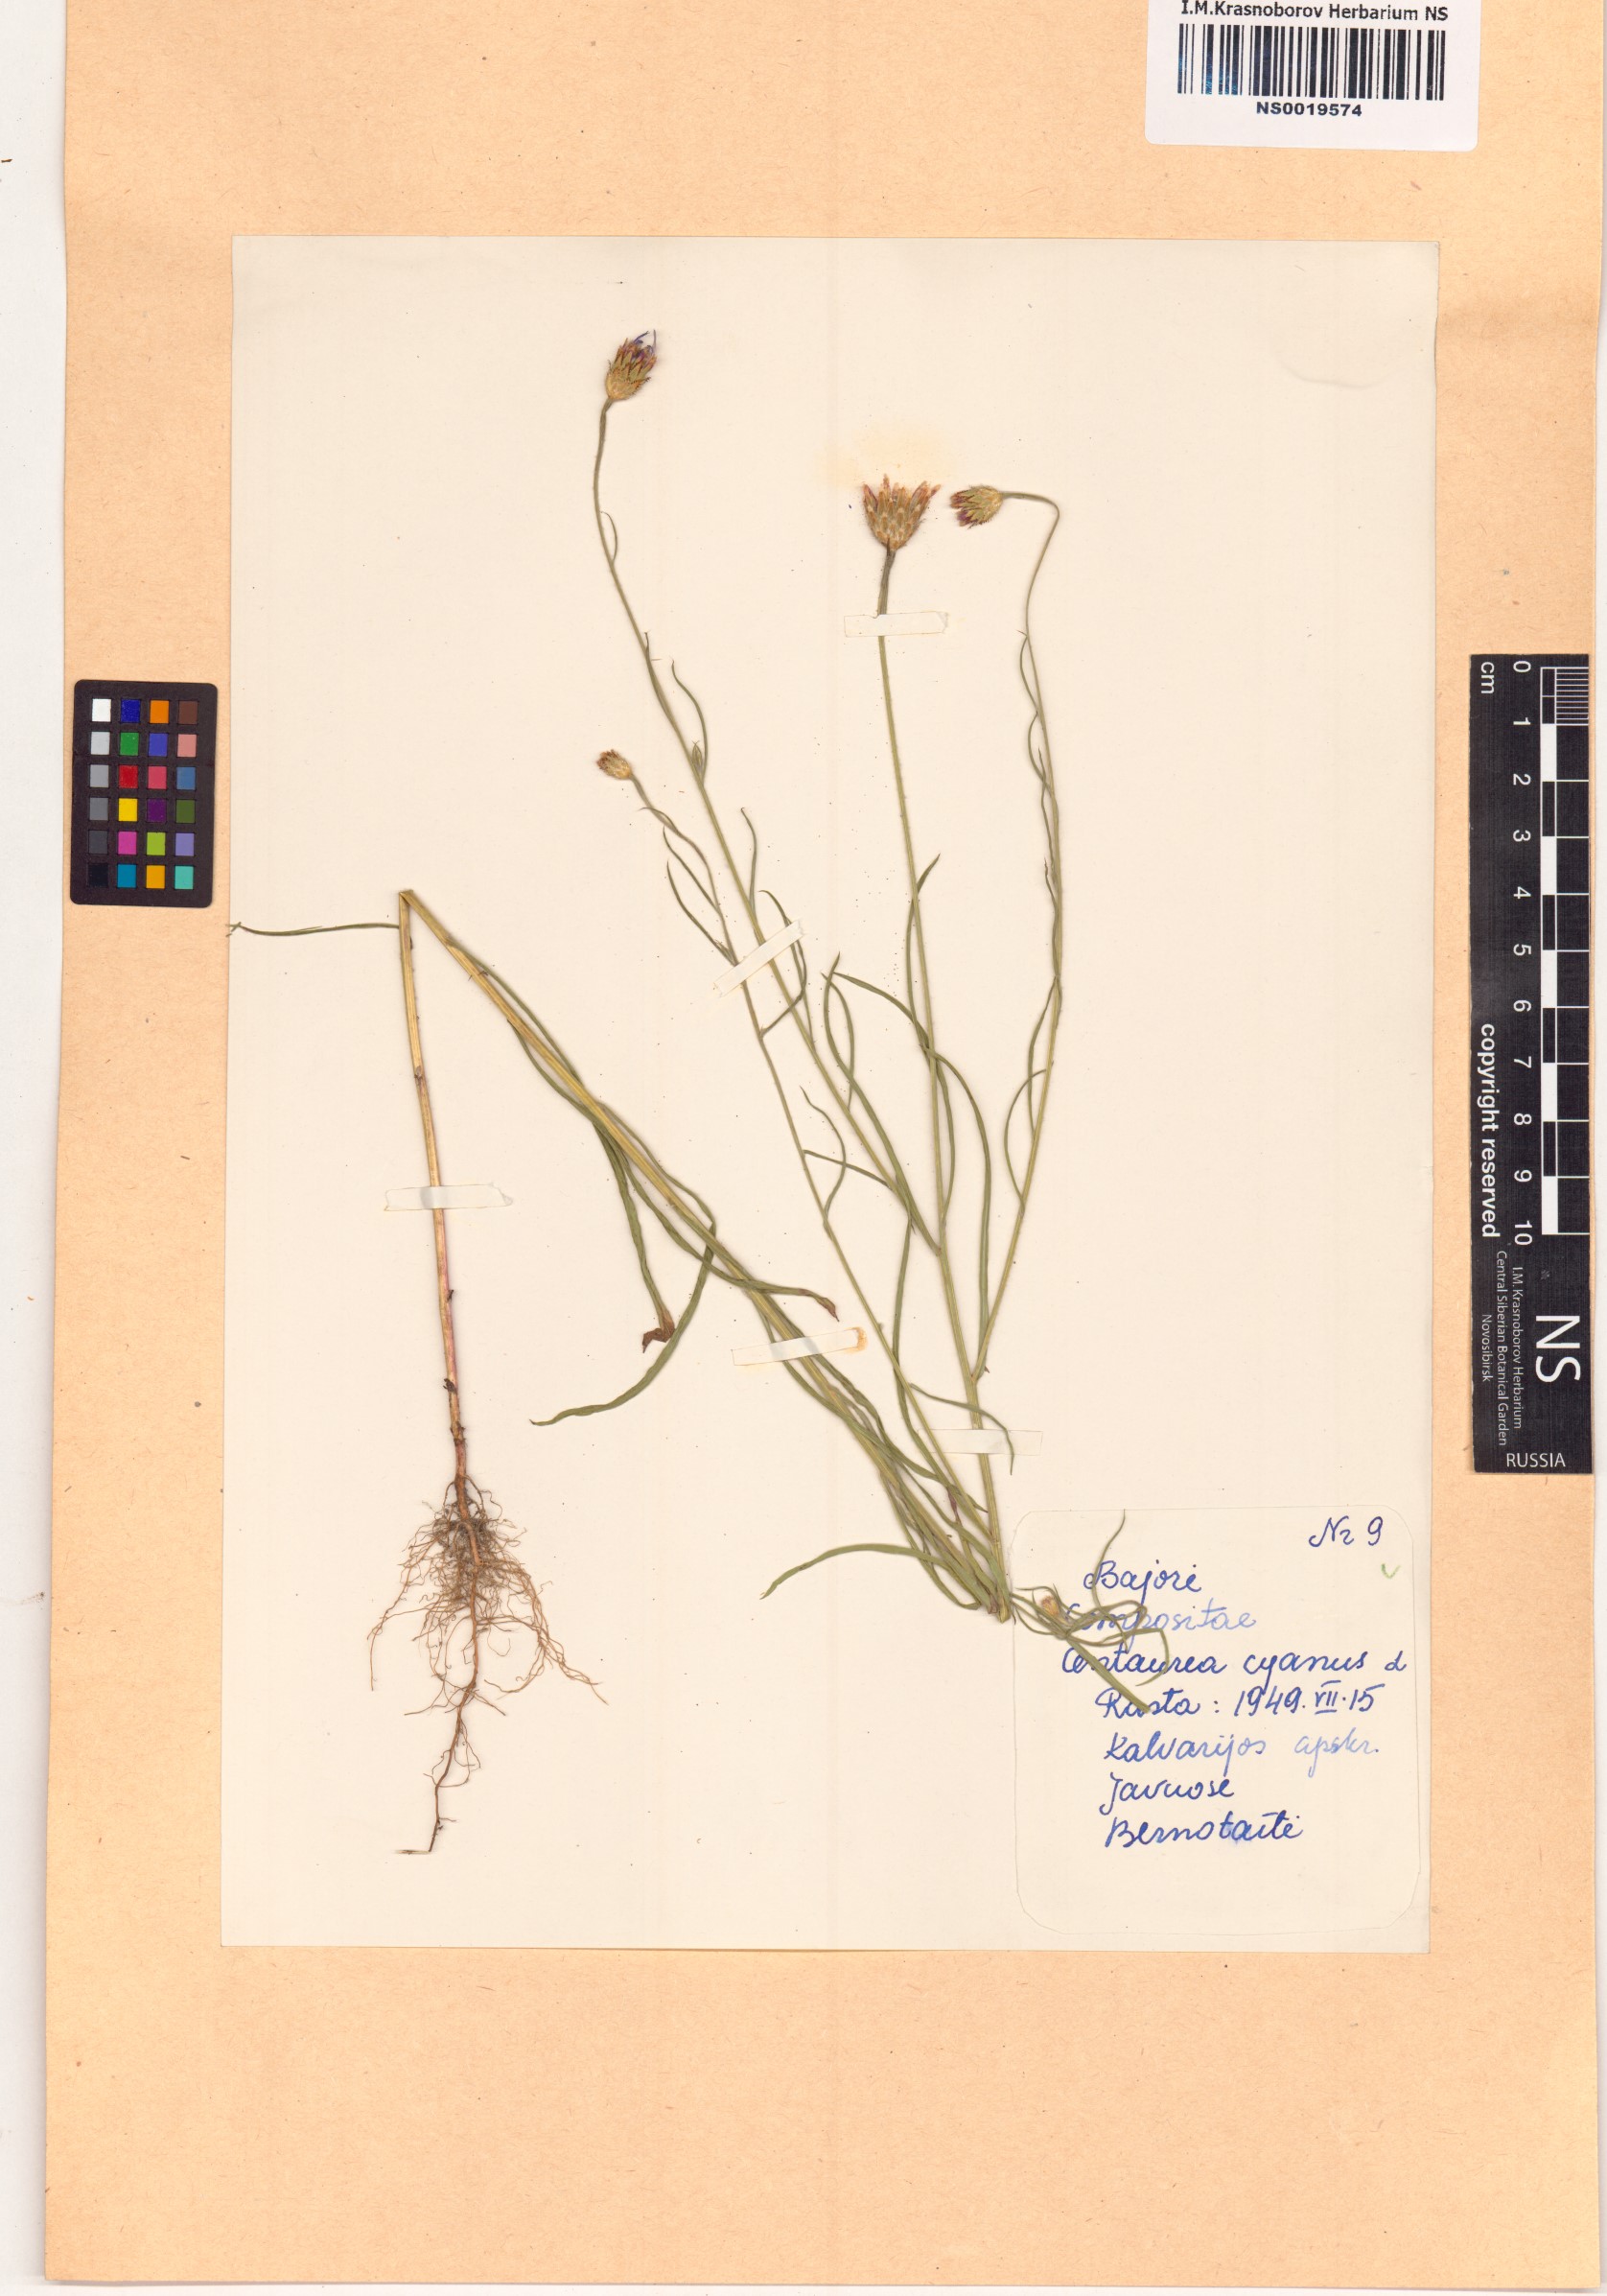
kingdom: Plantae
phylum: Tracheophyta
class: Magnoliopsida
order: Asterales
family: Asteraceae
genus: Centaurea
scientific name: Centaurea cyanus
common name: Cornflower
